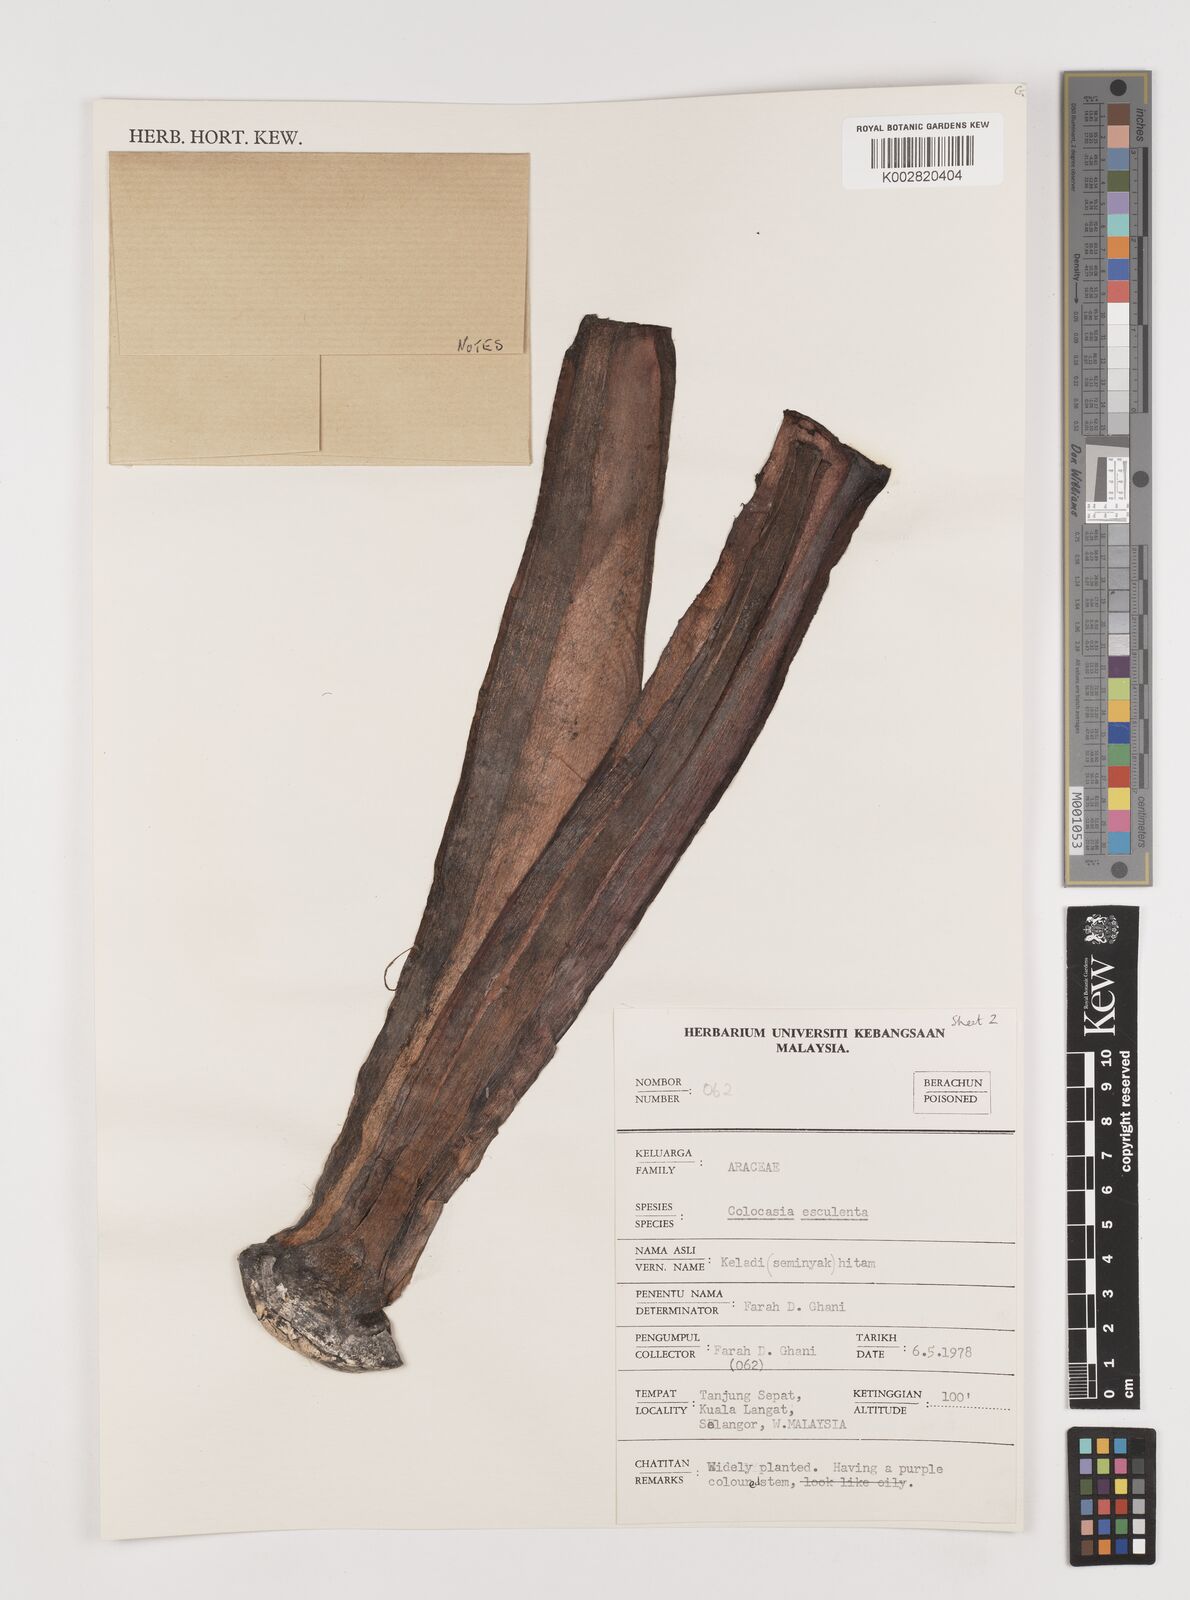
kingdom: Plantae
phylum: Tracheophyta
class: Liliopsida
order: Alismatales
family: Araceae
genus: Colocasia
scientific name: Colocasia esculenta
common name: Taro
